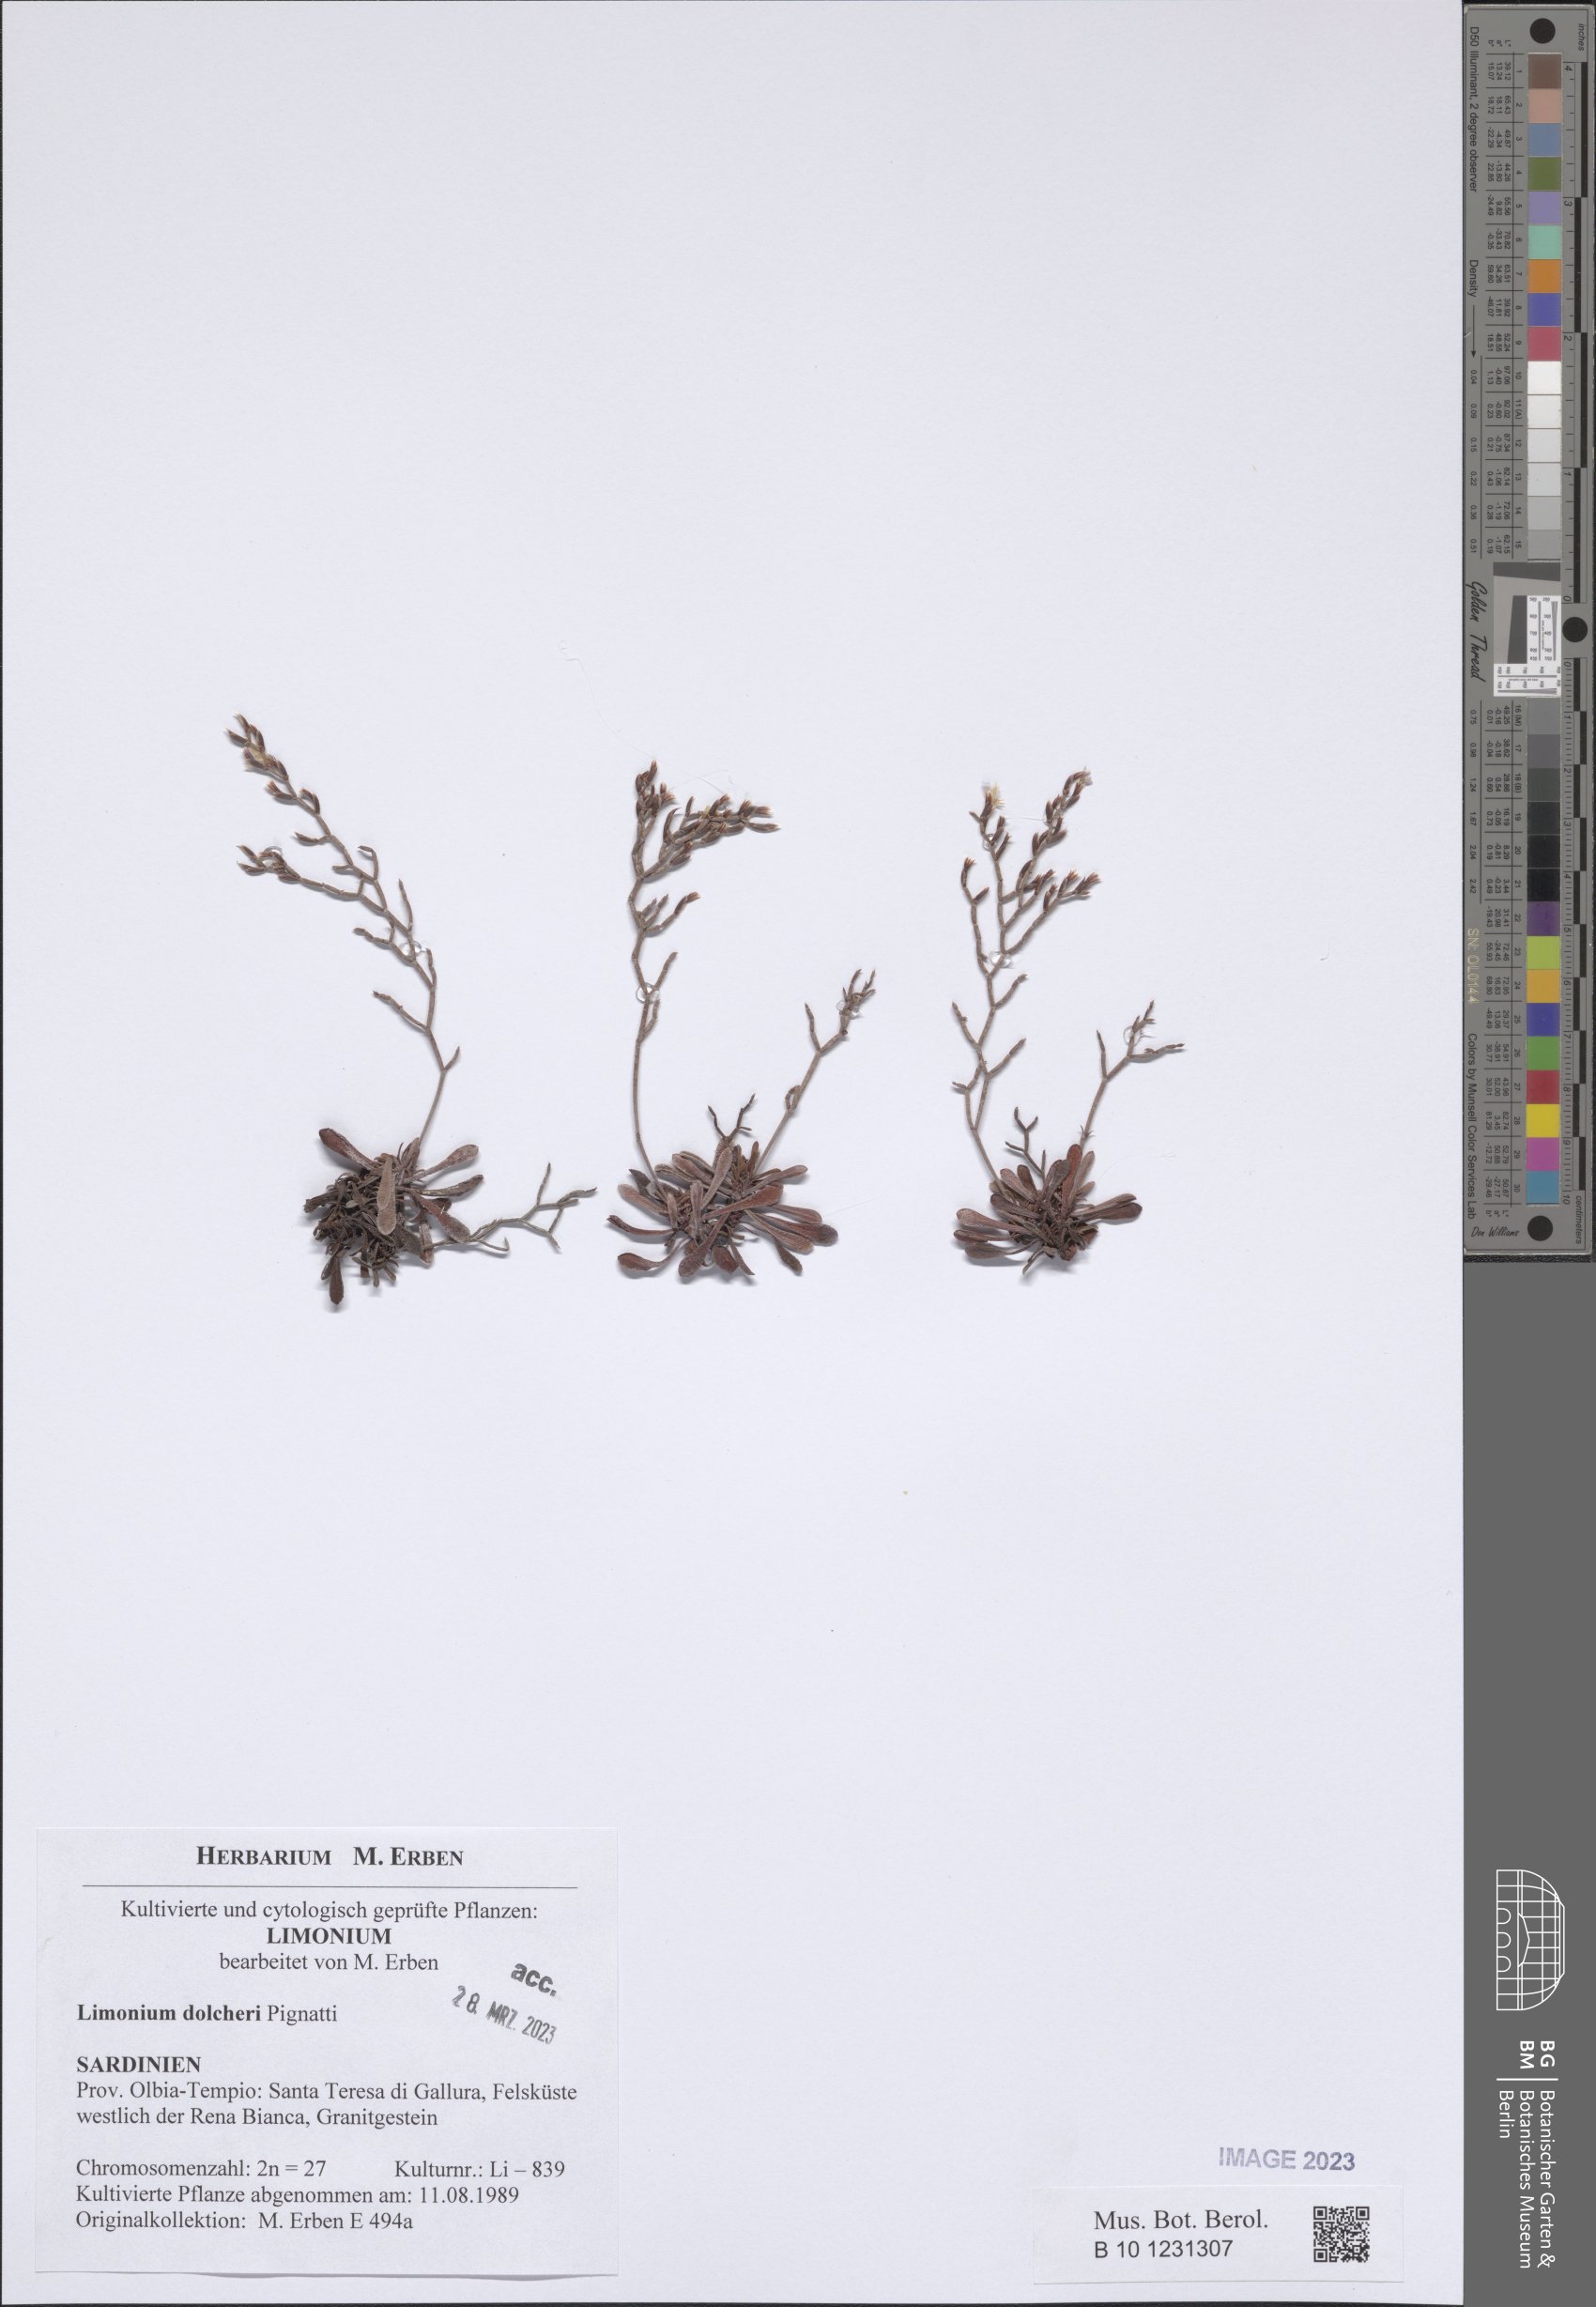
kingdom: Plantae
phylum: Tracheophyta
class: Magnoliopsida
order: Caryophyllales
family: Plumbaginaceae
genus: Limonium
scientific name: Limonium dolcheri
